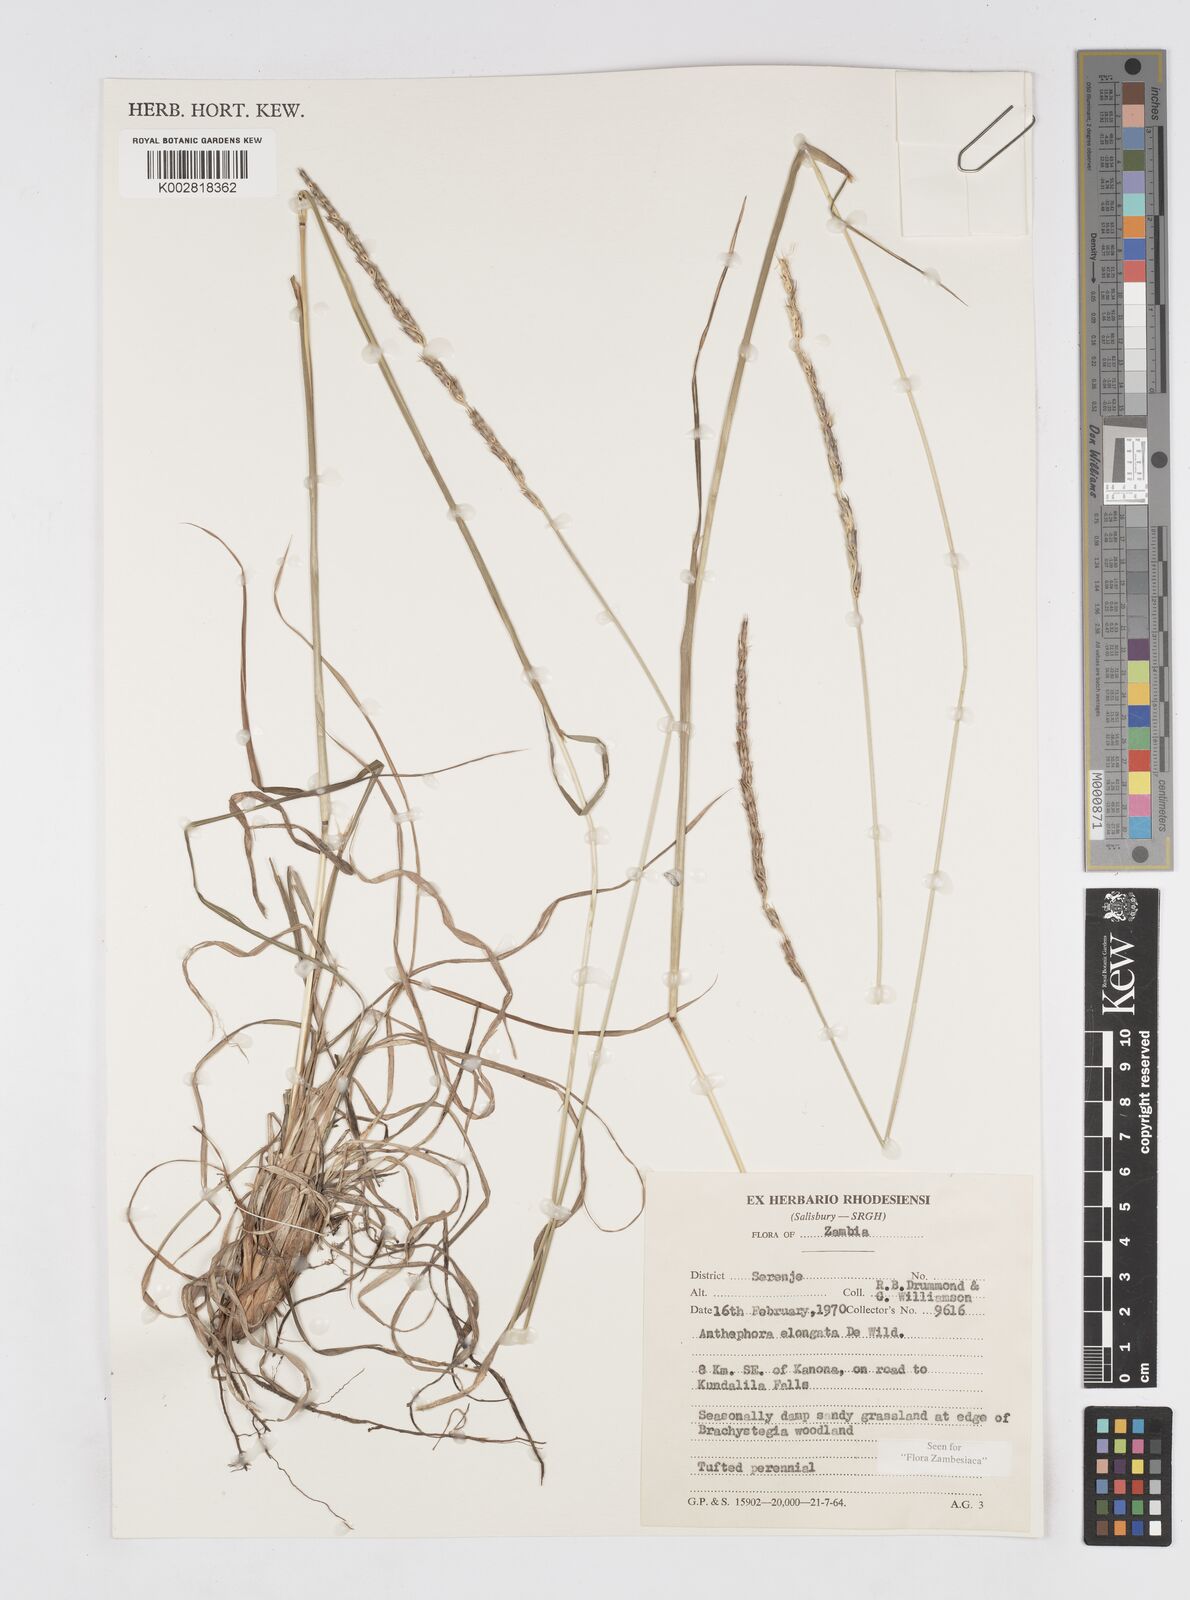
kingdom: Plantae
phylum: Tracheophyta
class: Liliopsida
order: Poales
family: Poaceae
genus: Anthephora
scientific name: Anthephora elongata
